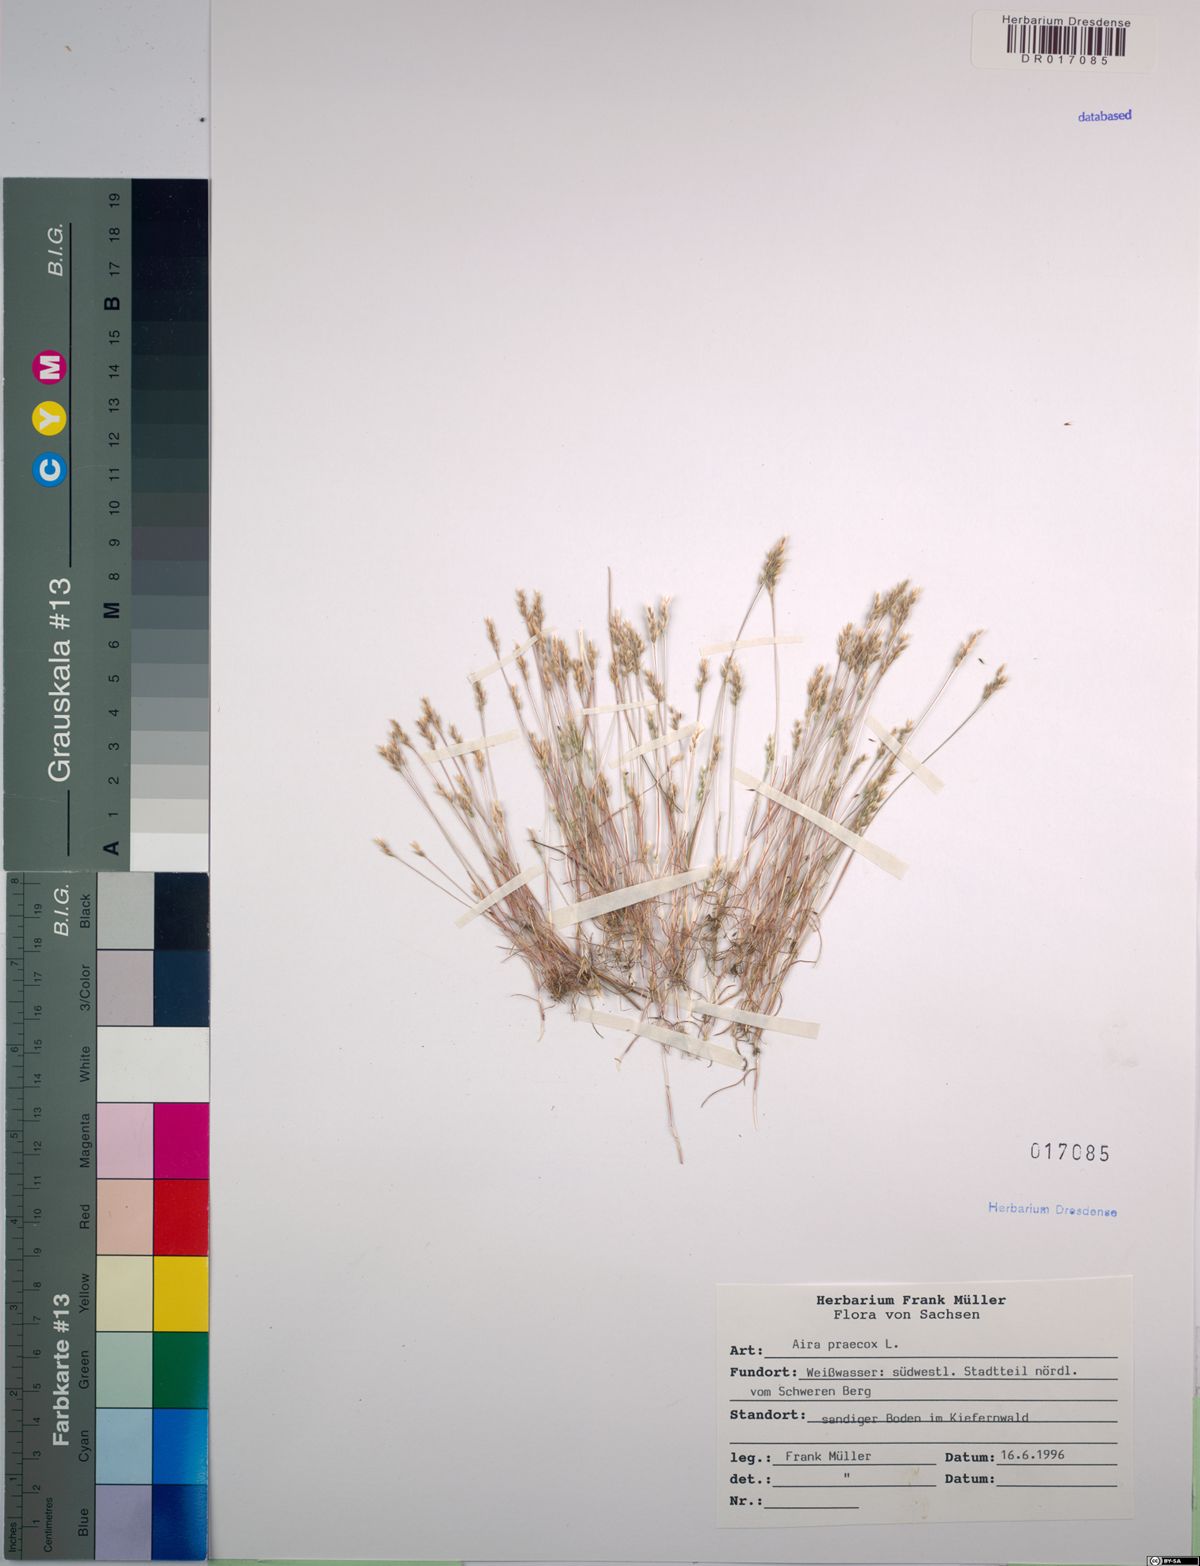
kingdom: Plantae
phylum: Tracheophyta
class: Liliopsida
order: Poales
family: Poaceae
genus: Aira
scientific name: Aira praecox
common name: Early hair-grass
